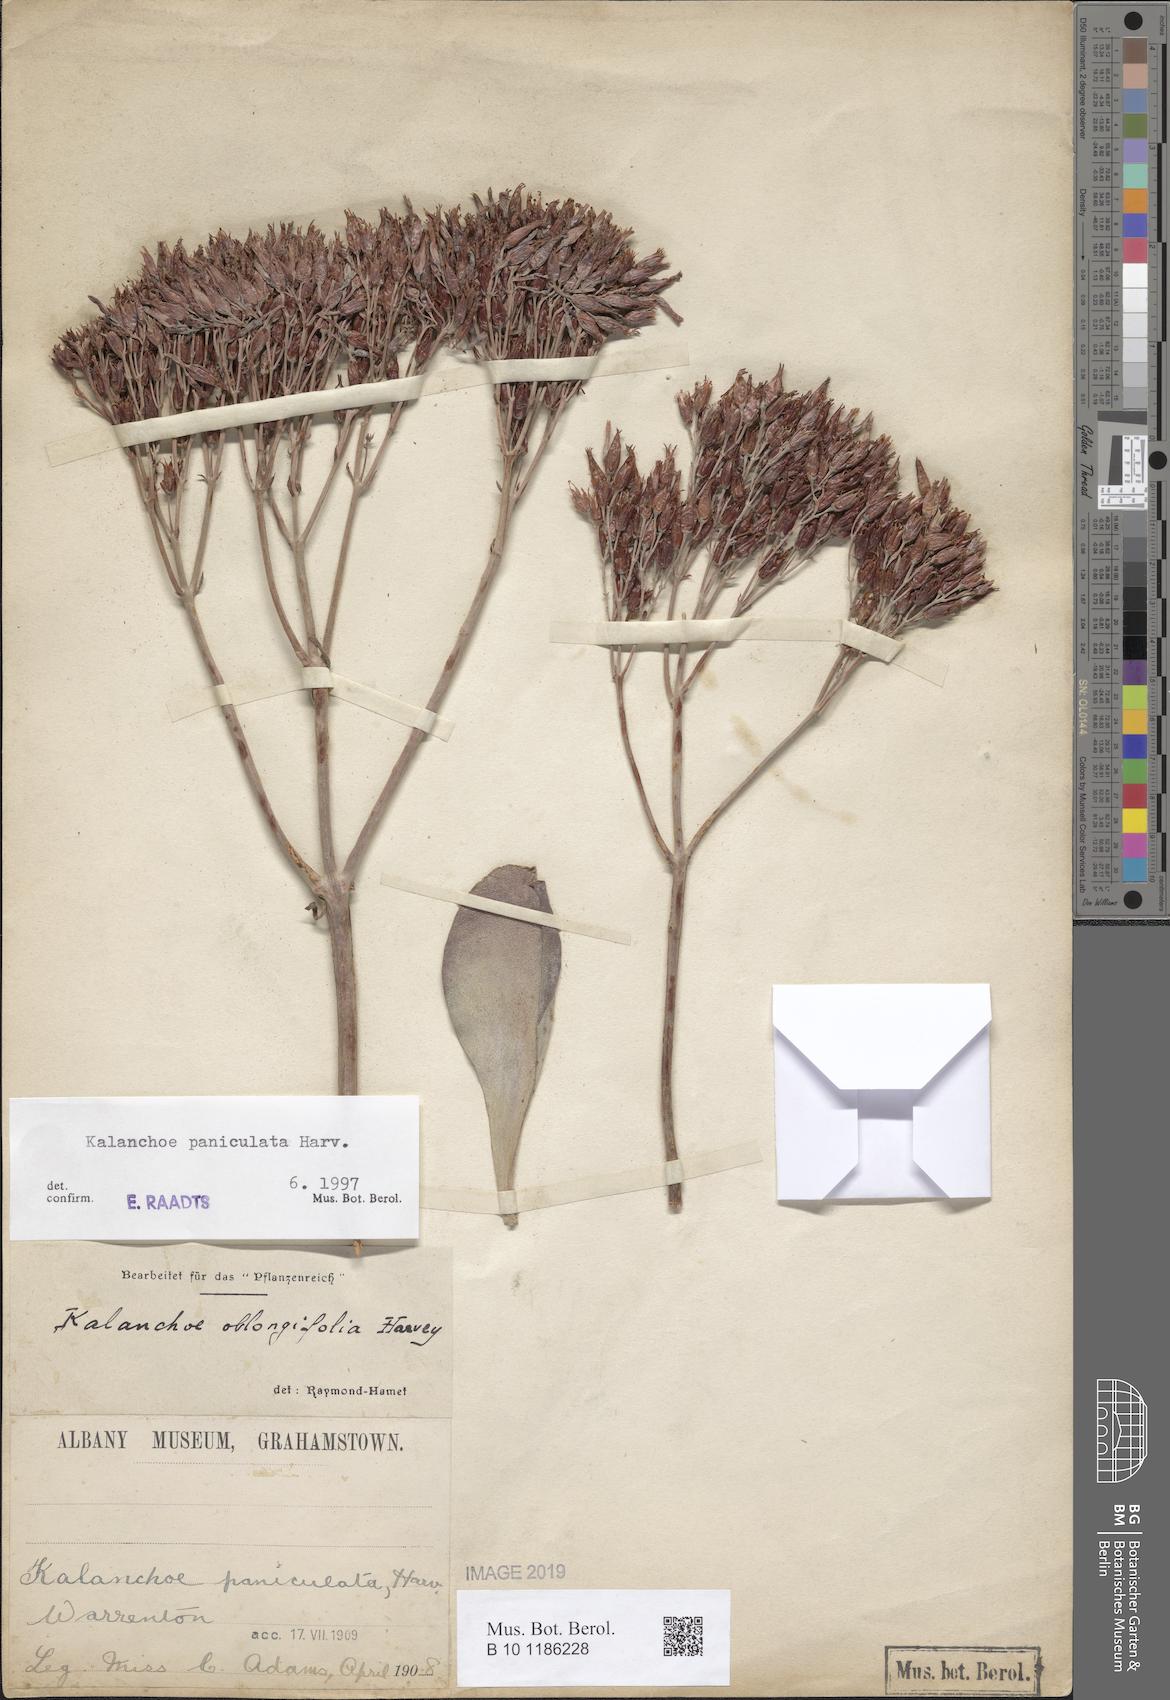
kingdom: Plantae
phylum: Tracheophyta
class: Magnoliopsida
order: Saxifragales
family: Crassulaceae
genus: Kalanchoe
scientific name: Kalanchoe paniculata
